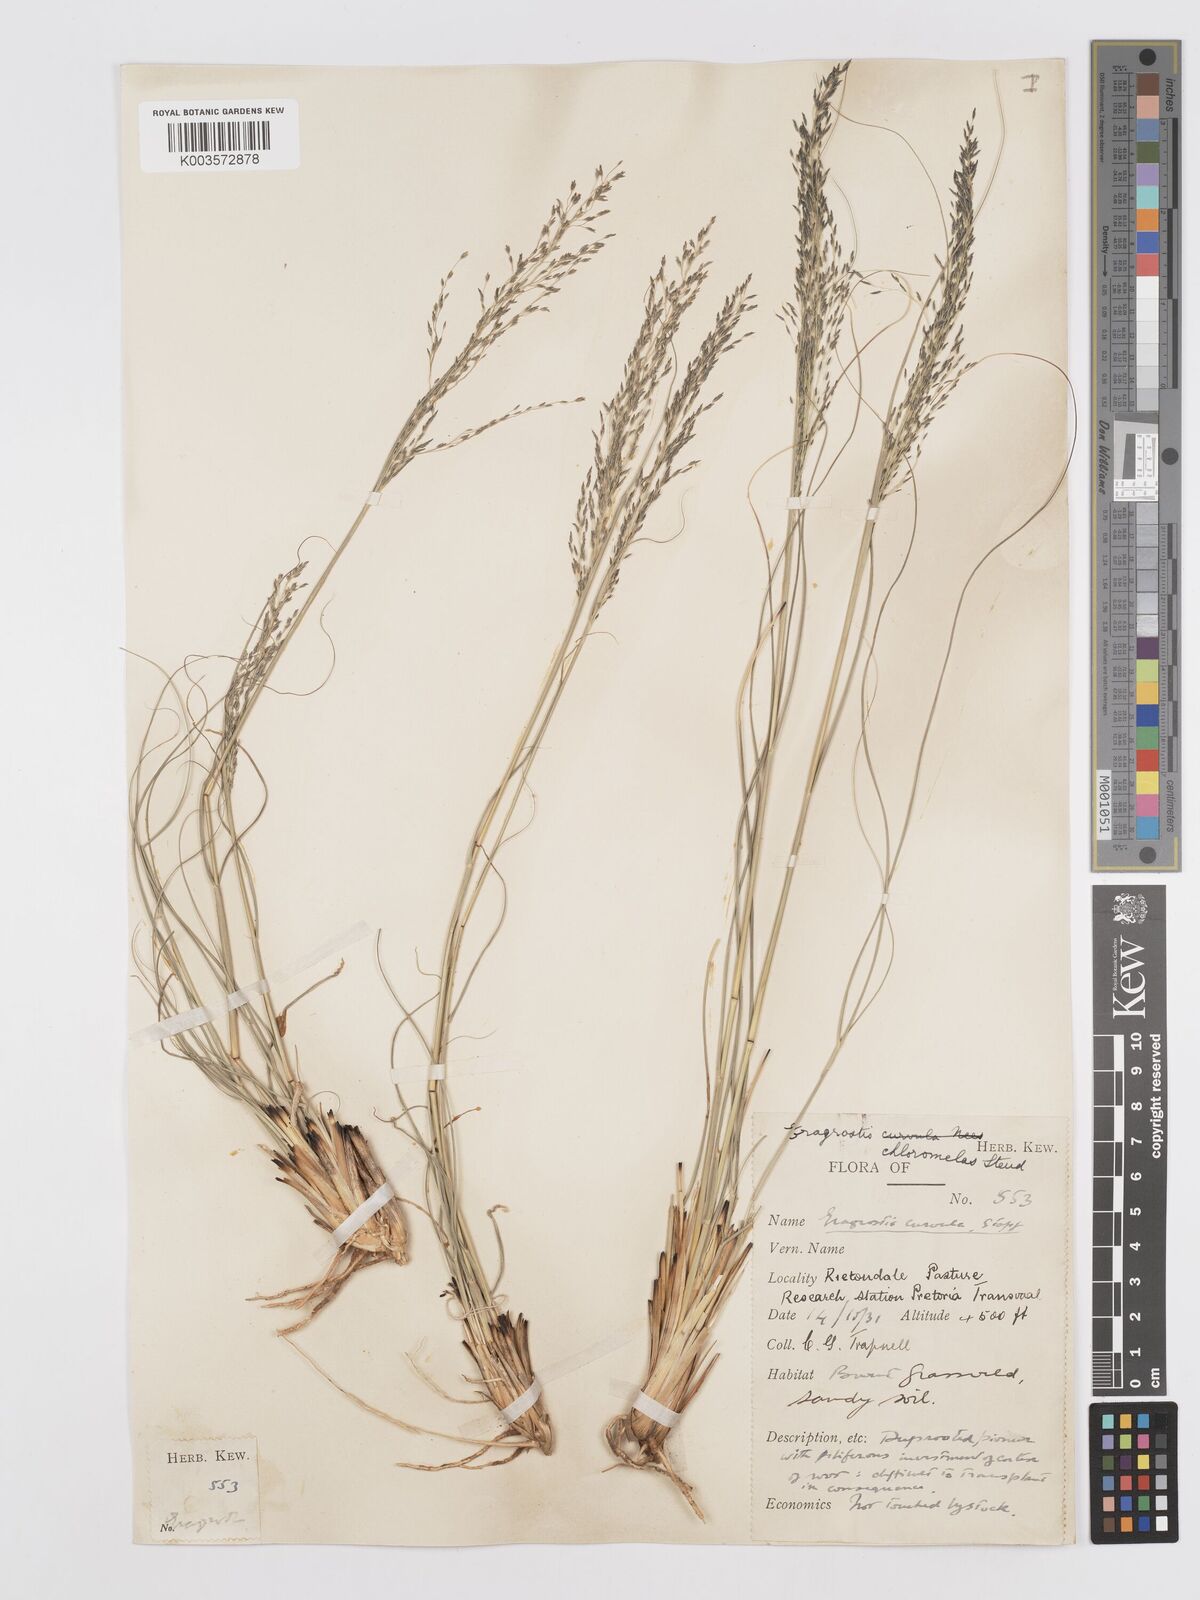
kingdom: Plantae
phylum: Tracheophyta
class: Liliopsida
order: Poales
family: Poaceae
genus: Eragrostis
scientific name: Eragrostis curvula
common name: African love-grass
